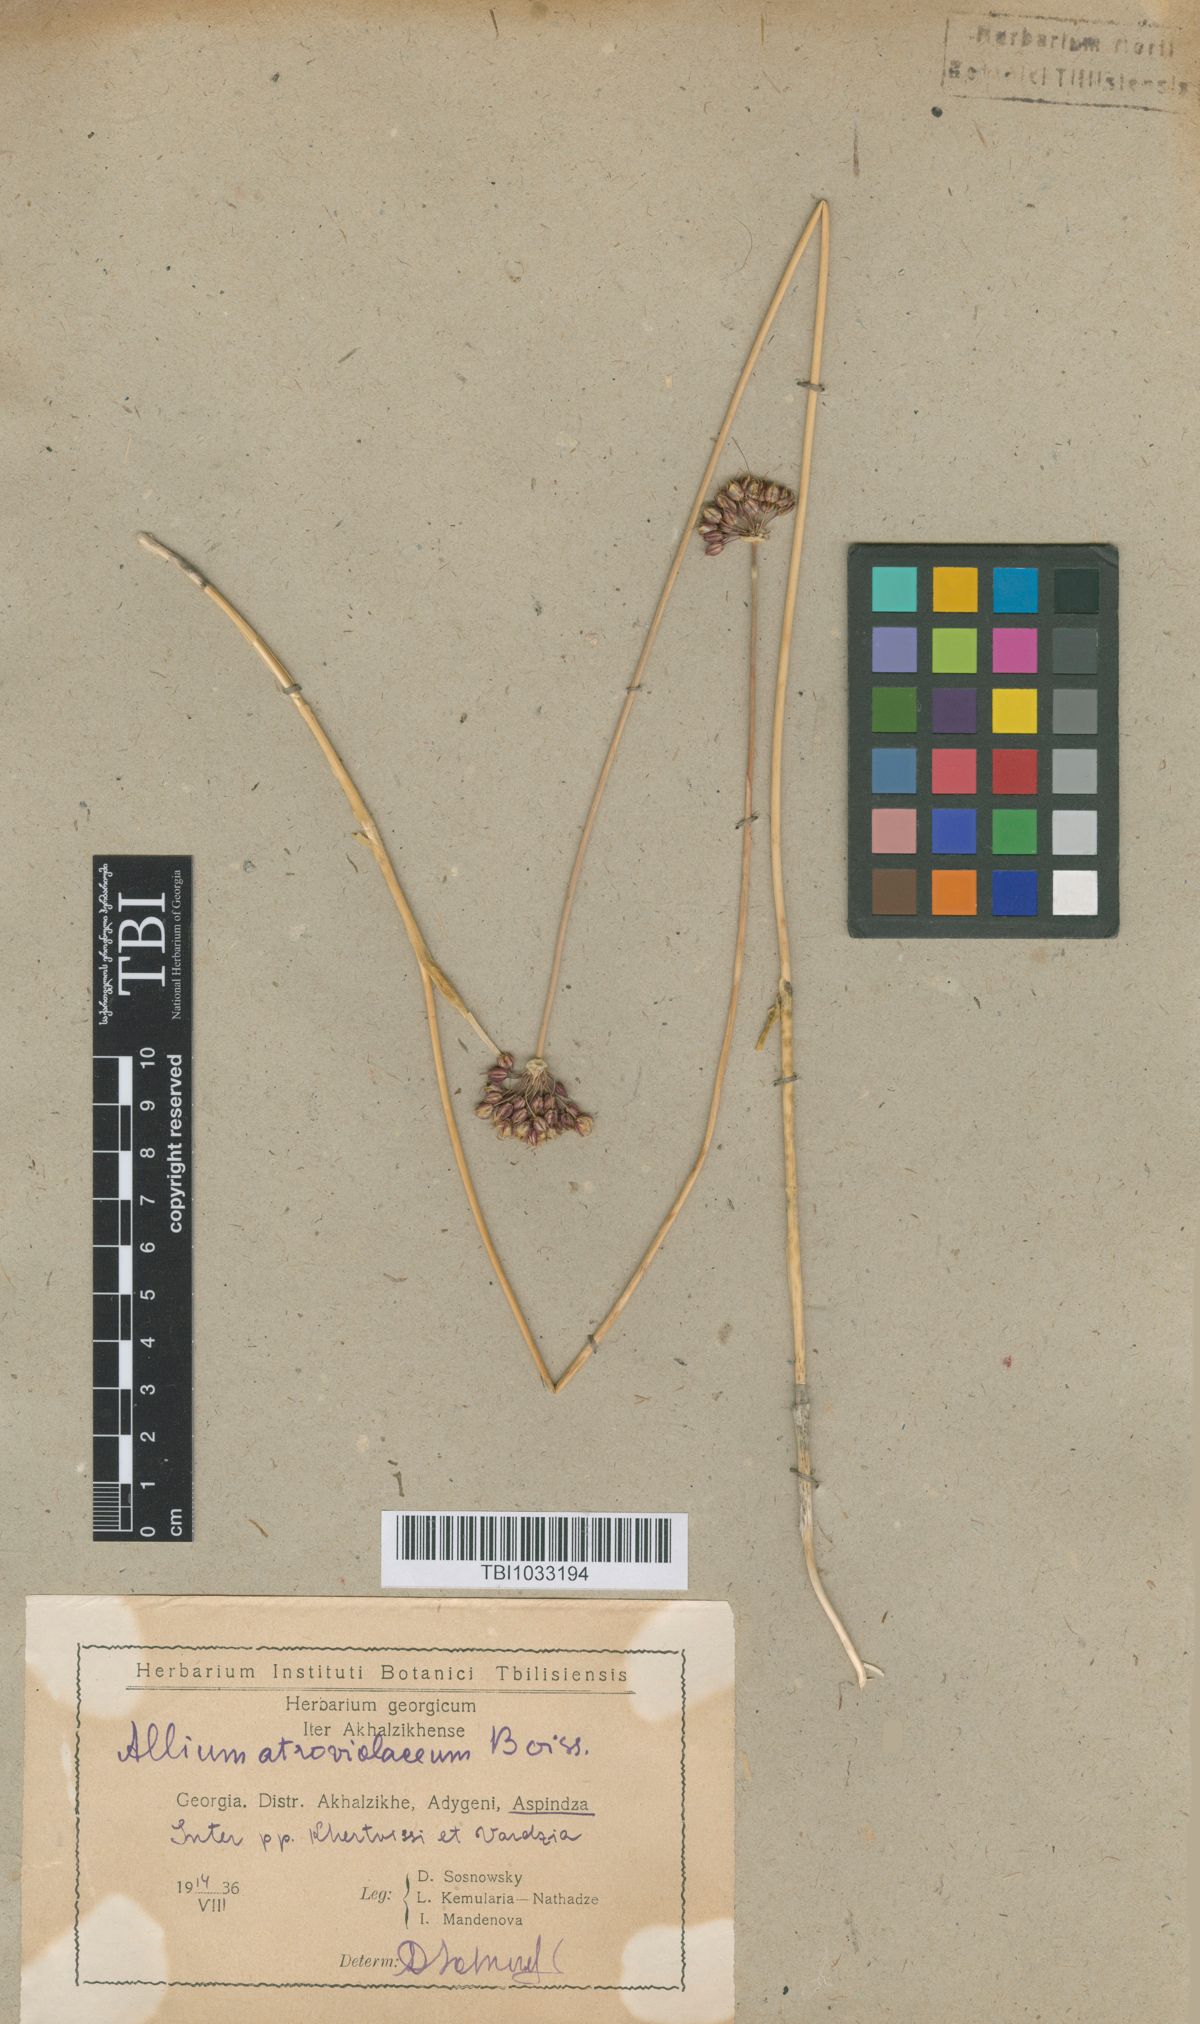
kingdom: Plantae
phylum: Tracheophyta
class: Liliopsida
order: Asparagales
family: Amaryllidaceae
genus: Allium
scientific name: Allium atroviolaceum
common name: Broadleaf wild leek
